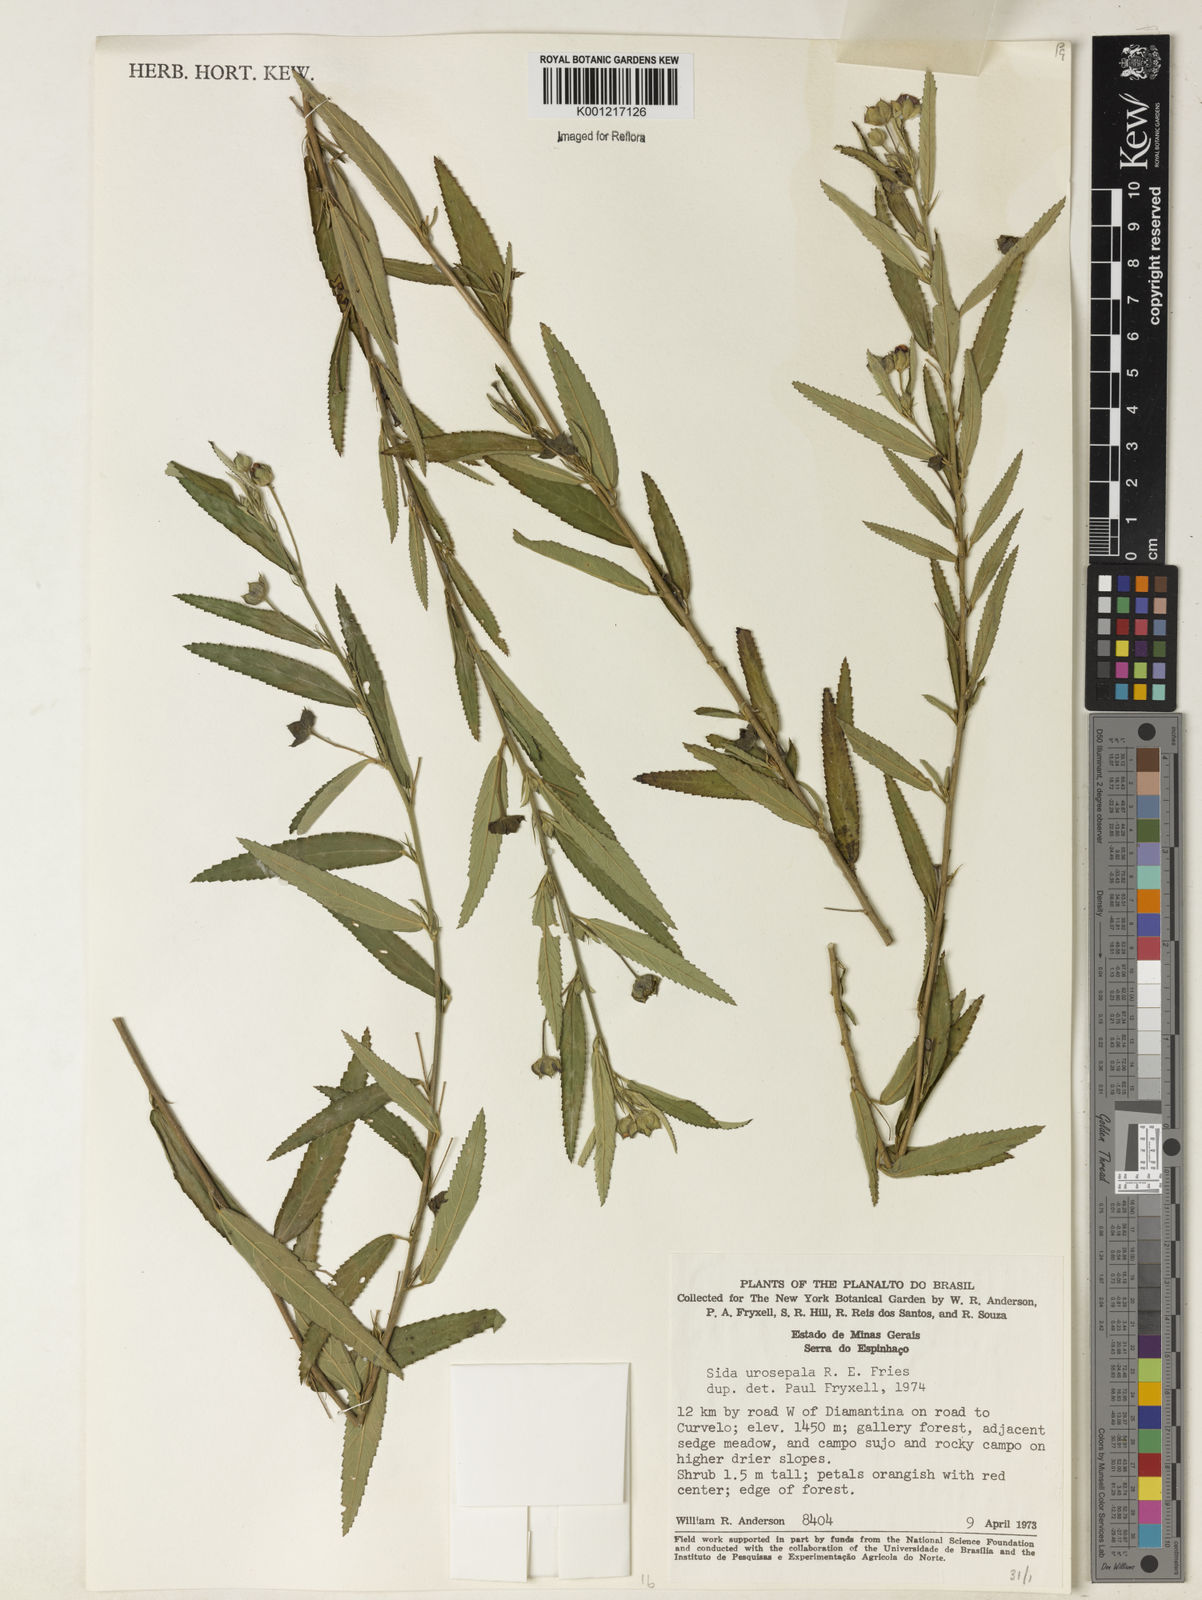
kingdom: Plantae
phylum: Tracheophyta
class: Magnoliopsida
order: Malvales
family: Malvaceae
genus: Sida
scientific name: Sida urosepala
